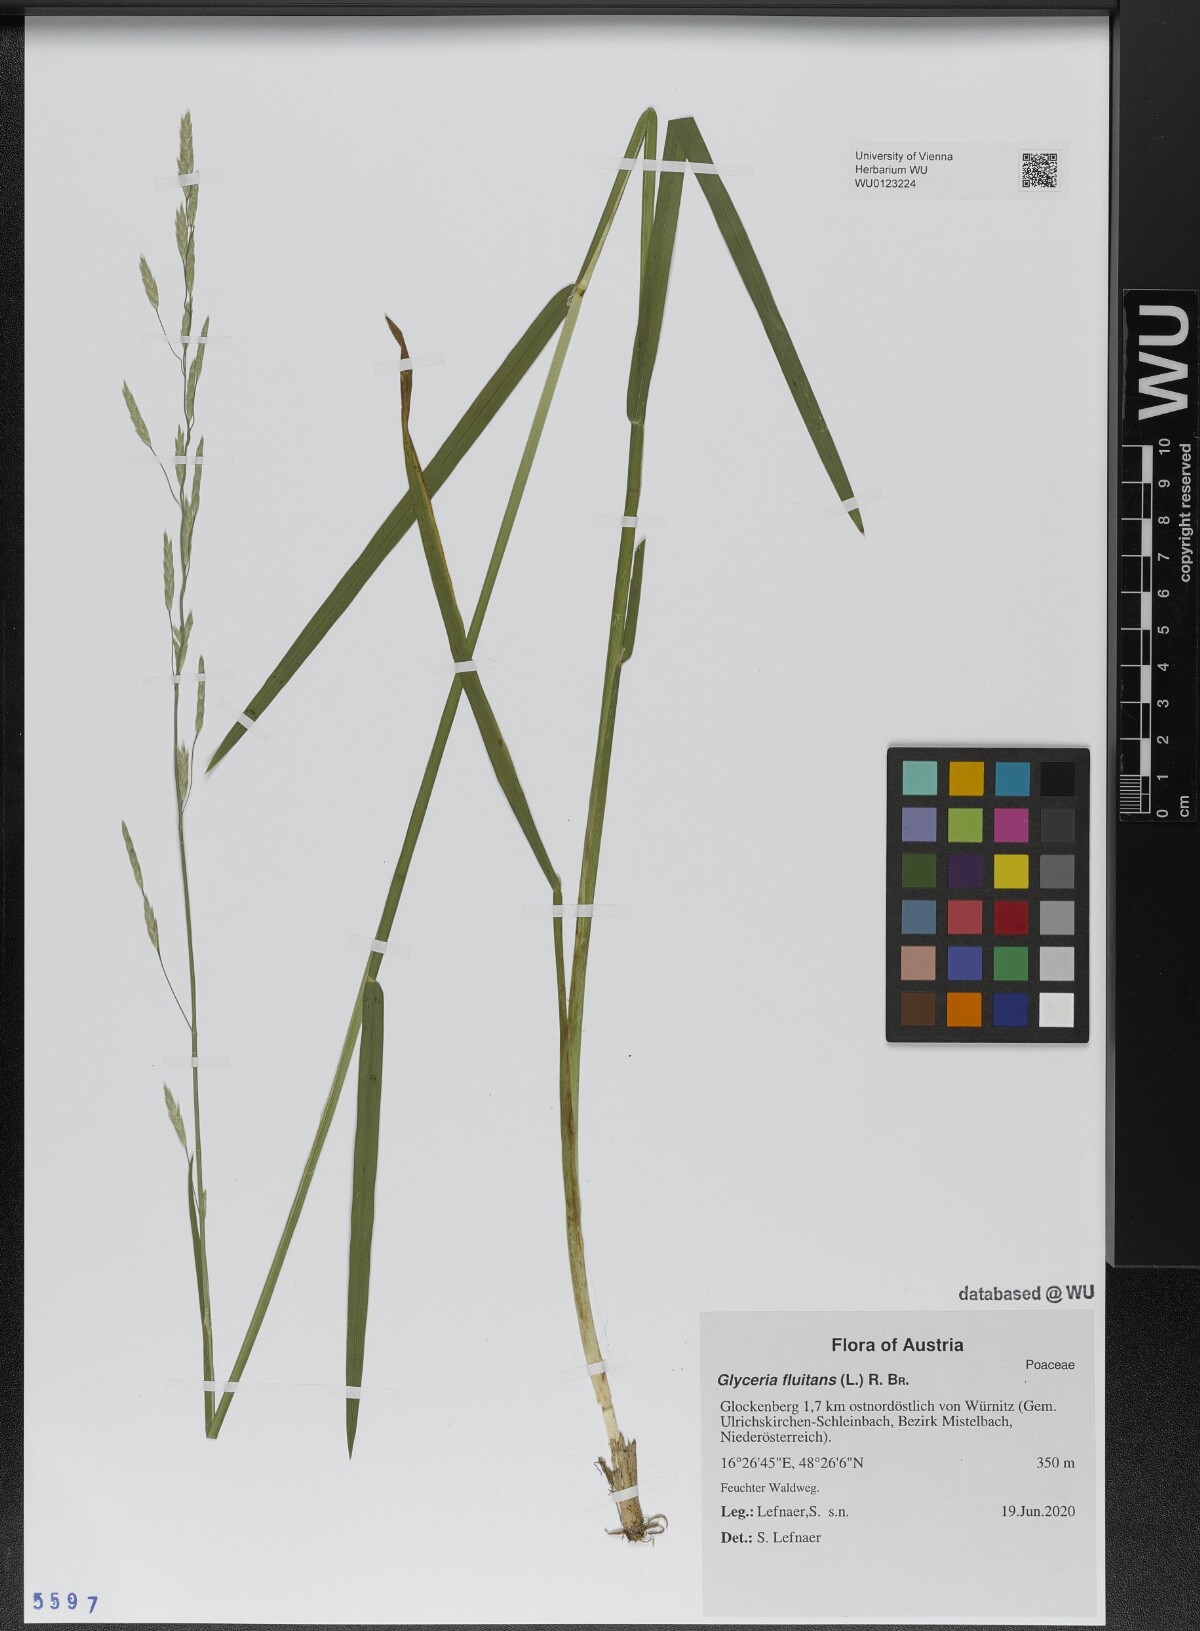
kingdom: Plantae
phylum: Tracheophyta
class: Liliopsida
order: Poales
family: Poaceae
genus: Glyceria
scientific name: Glyceria fluitans
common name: Floating sweet-grass
